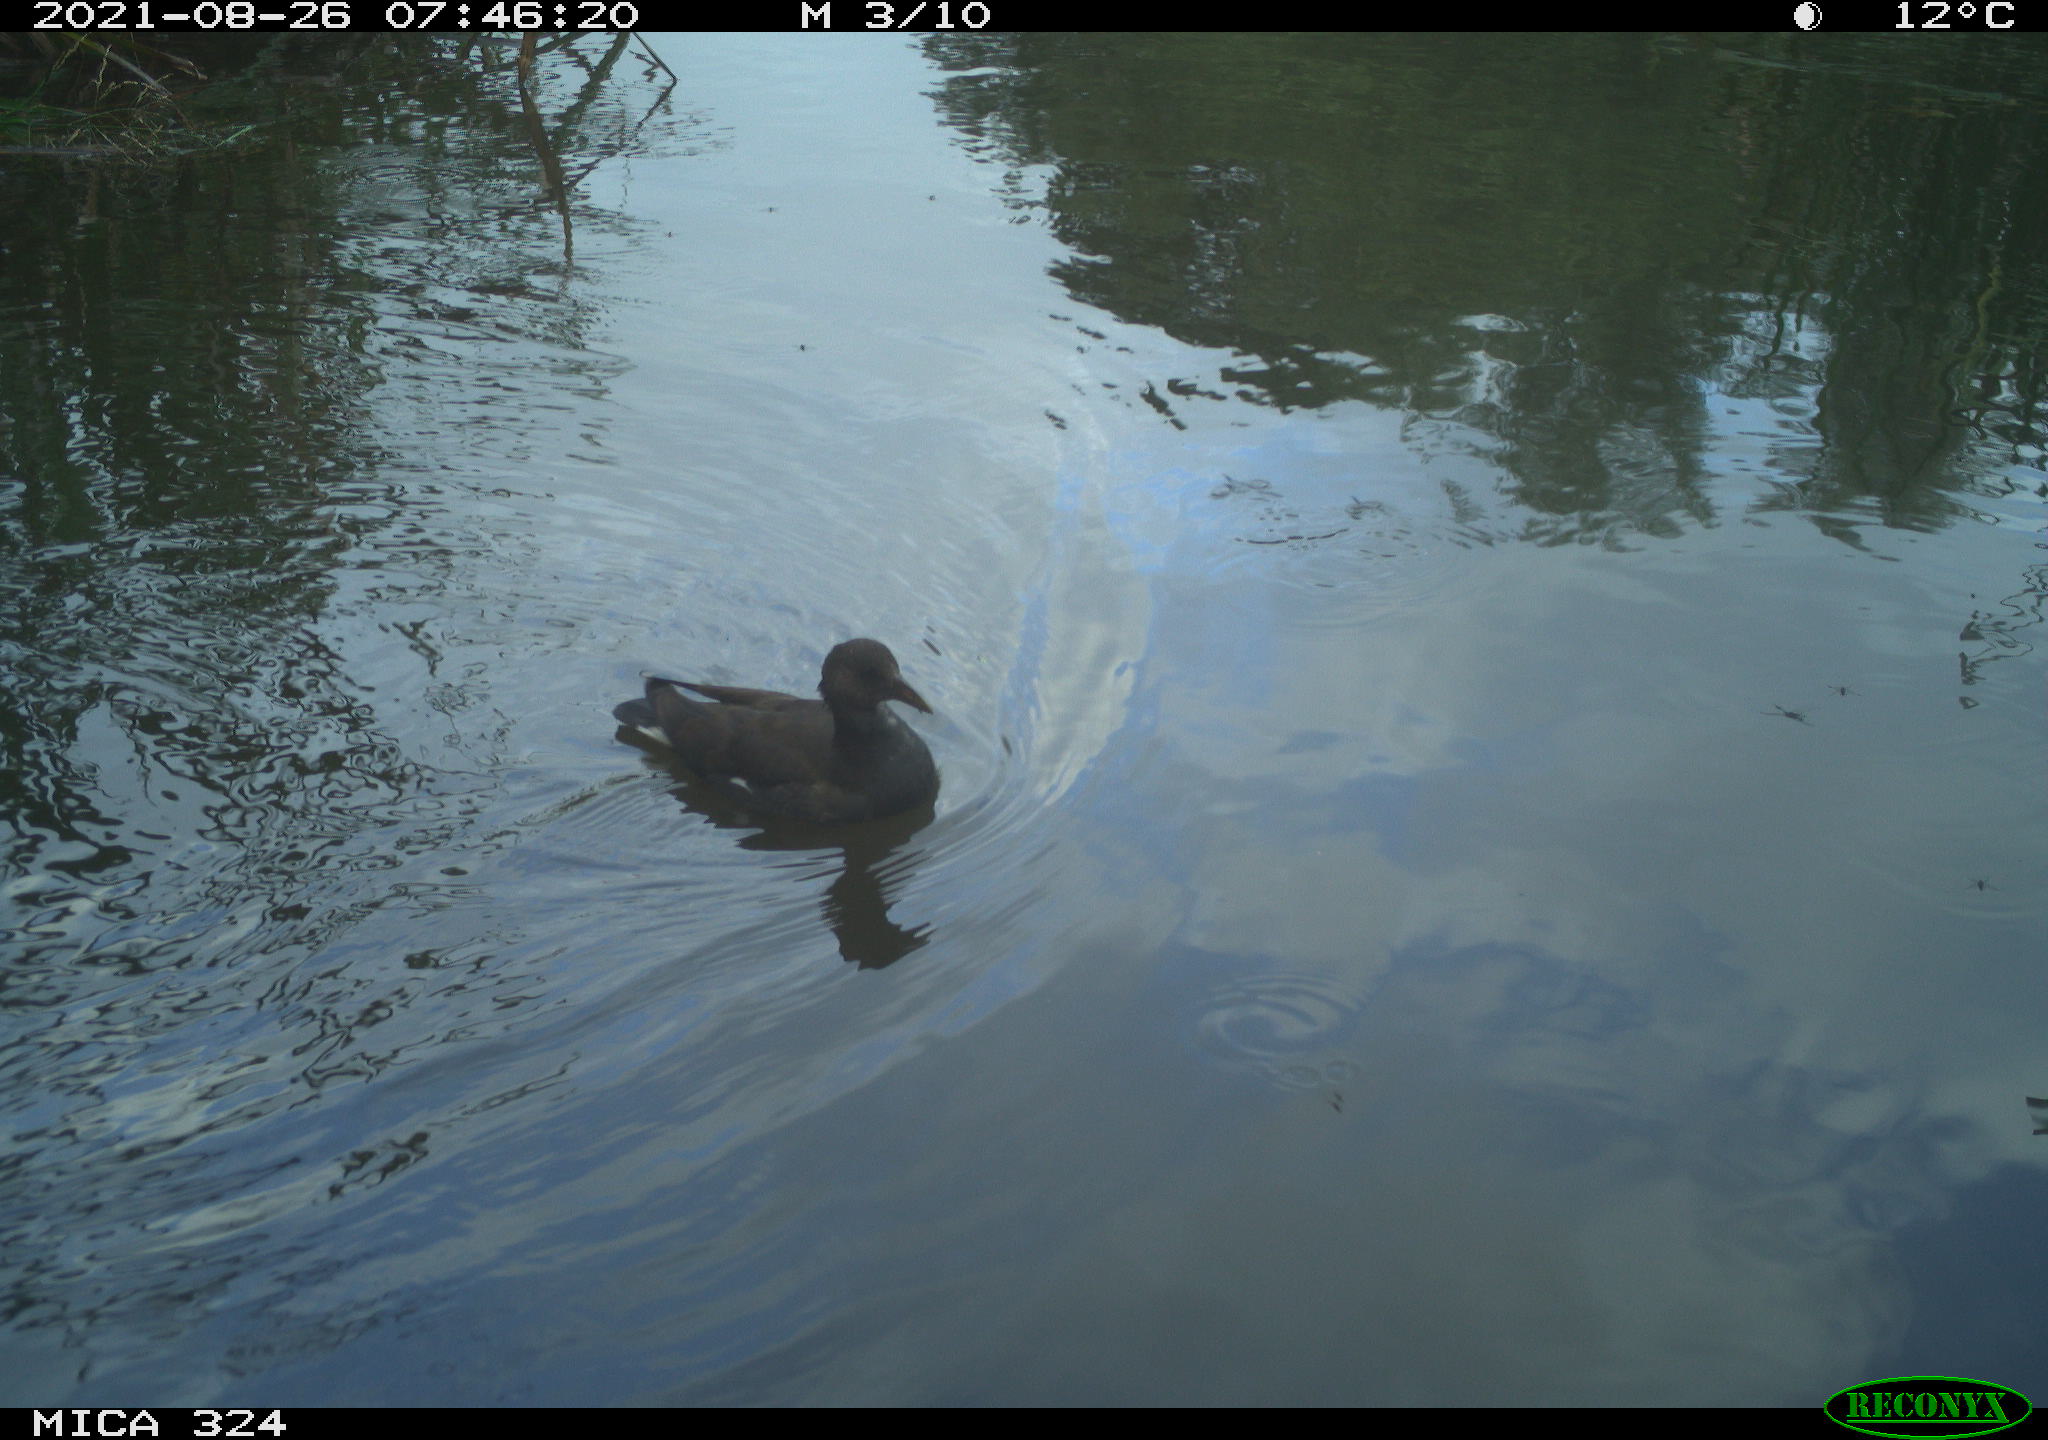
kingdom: Animalia
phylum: Chordata
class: Aves
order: Gruiformes
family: Rallidae
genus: Gallinula
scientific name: Gallinula chloropus
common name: Common moorhen
